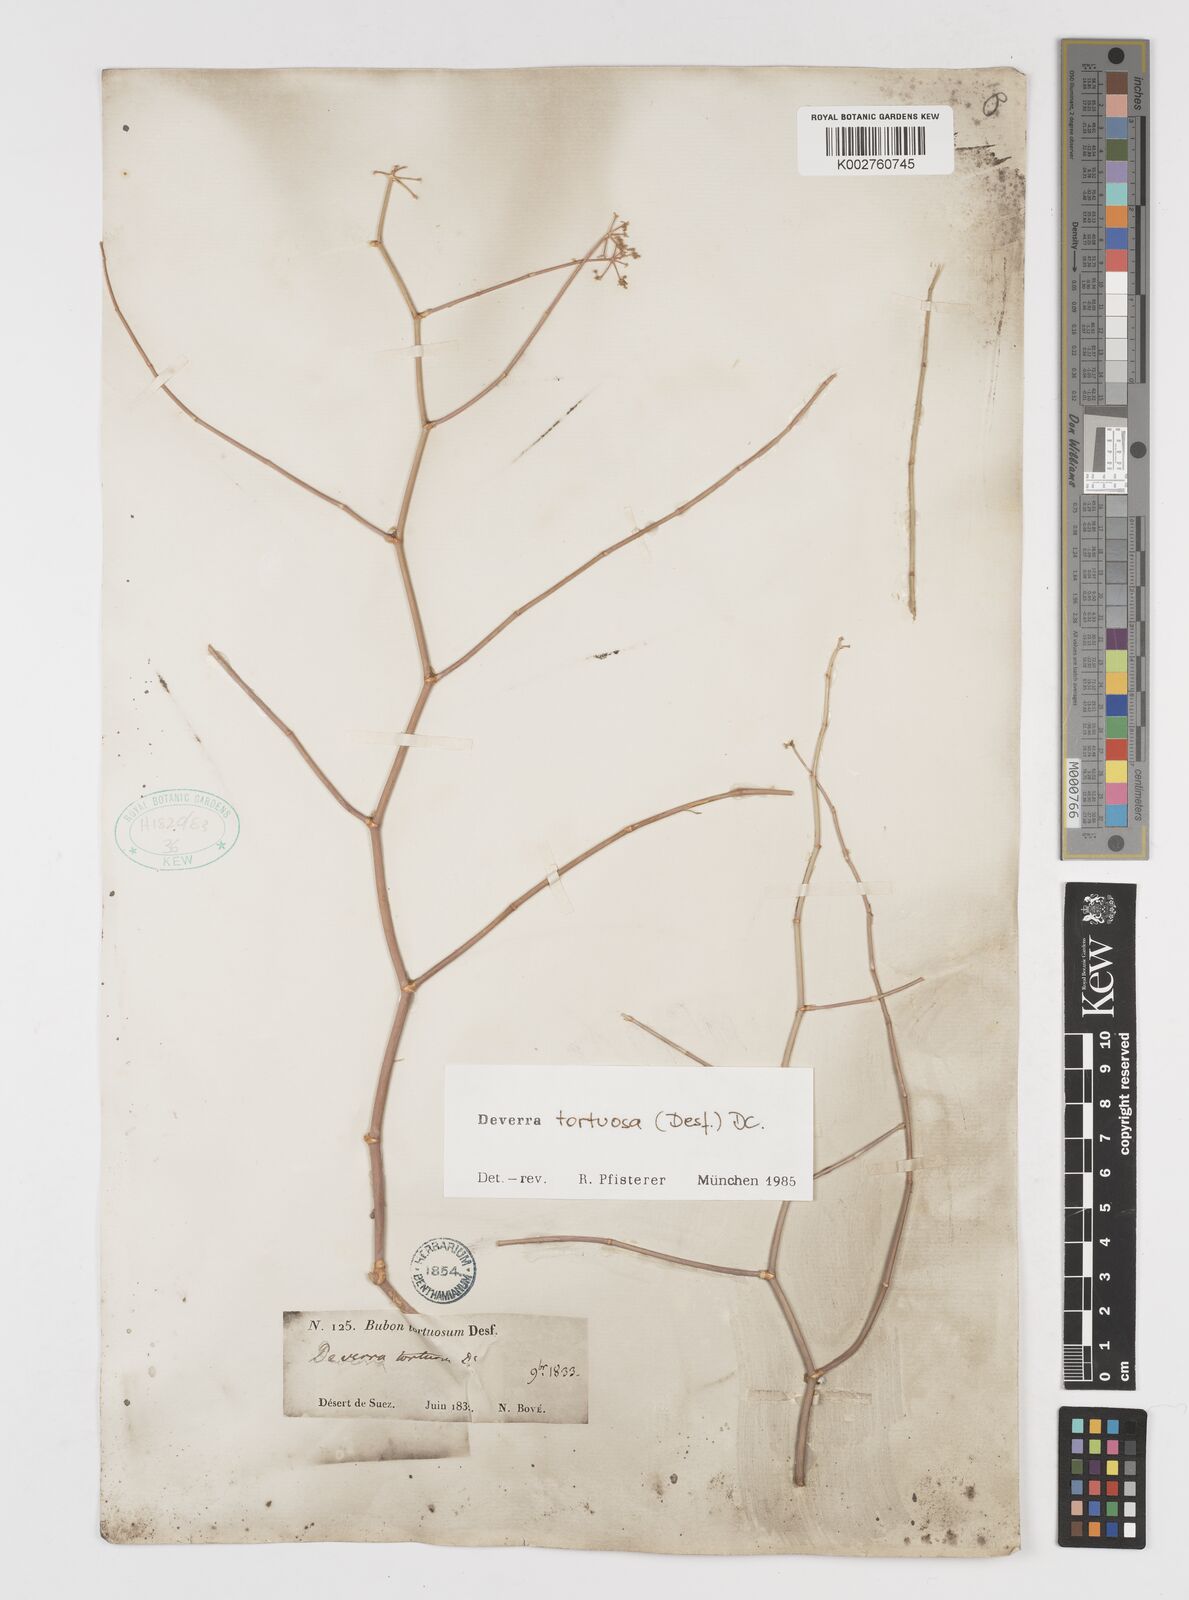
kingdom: Plantae
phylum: Tracheophyta
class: Magnoliopsida
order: Apiales
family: Apiaceae
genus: Deverra
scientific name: Deverra tortuosa
